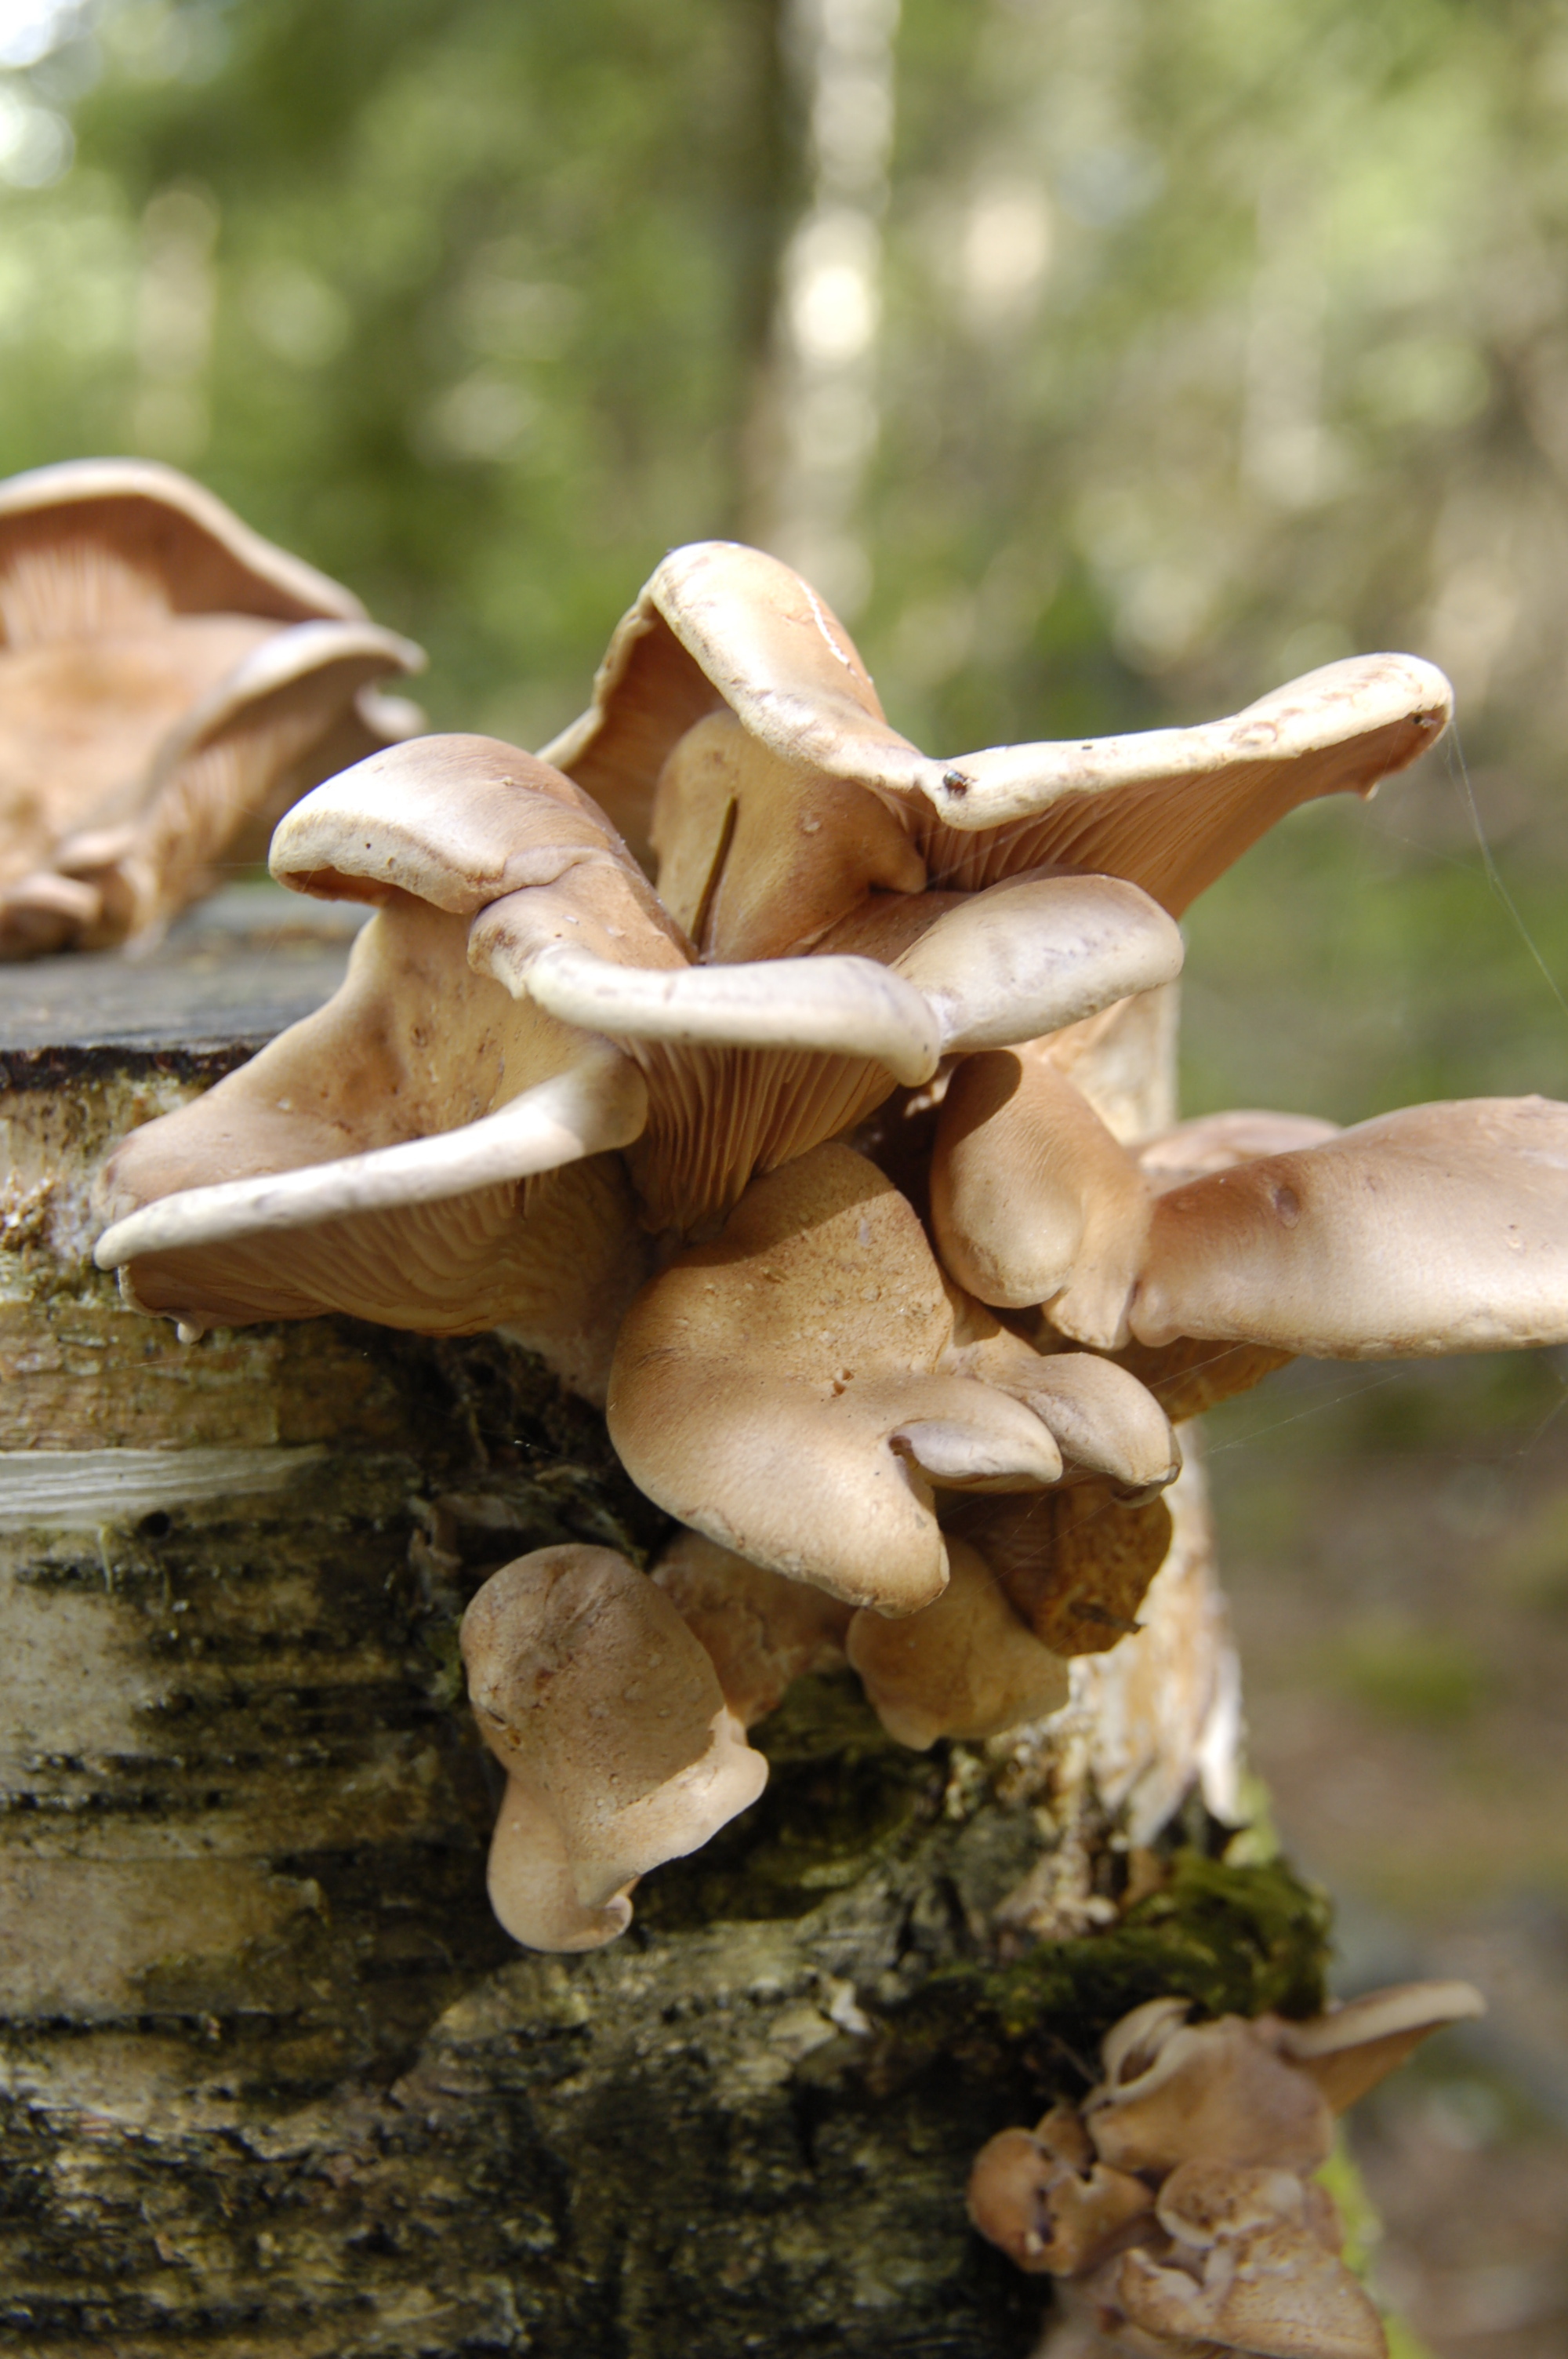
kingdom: Fungi
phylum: Basidiomycota
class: Agaricomycetes
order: Polyporales
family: Panaceae
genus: Panus
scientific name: Panus conchatus
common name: Lilac oysterling
